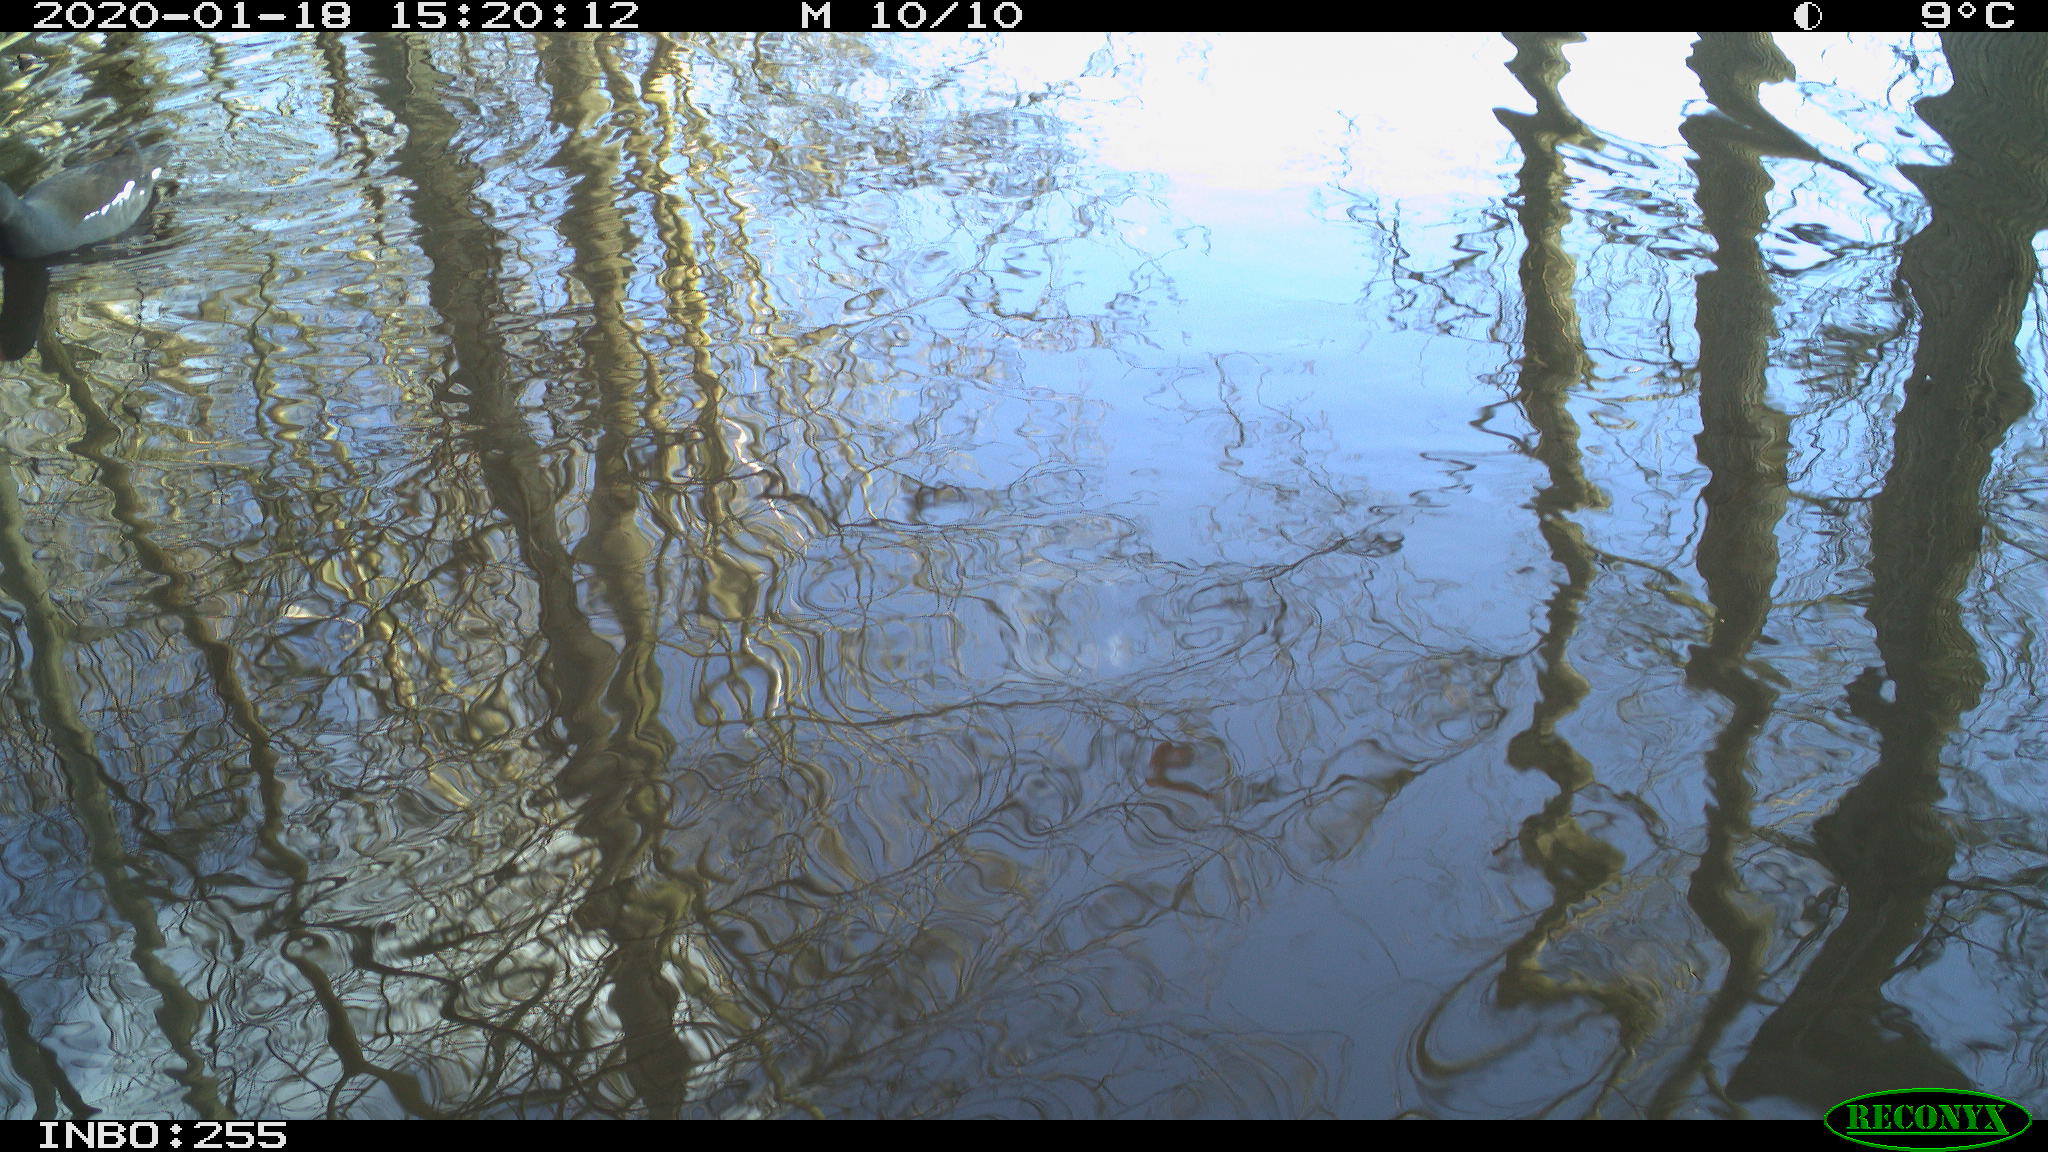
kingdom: Animalia
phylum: Chordata
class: Aves
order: Gruiformes
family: Rallidae
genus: Gallinula
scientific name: Gallinula chloropus
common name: Common moorhen
